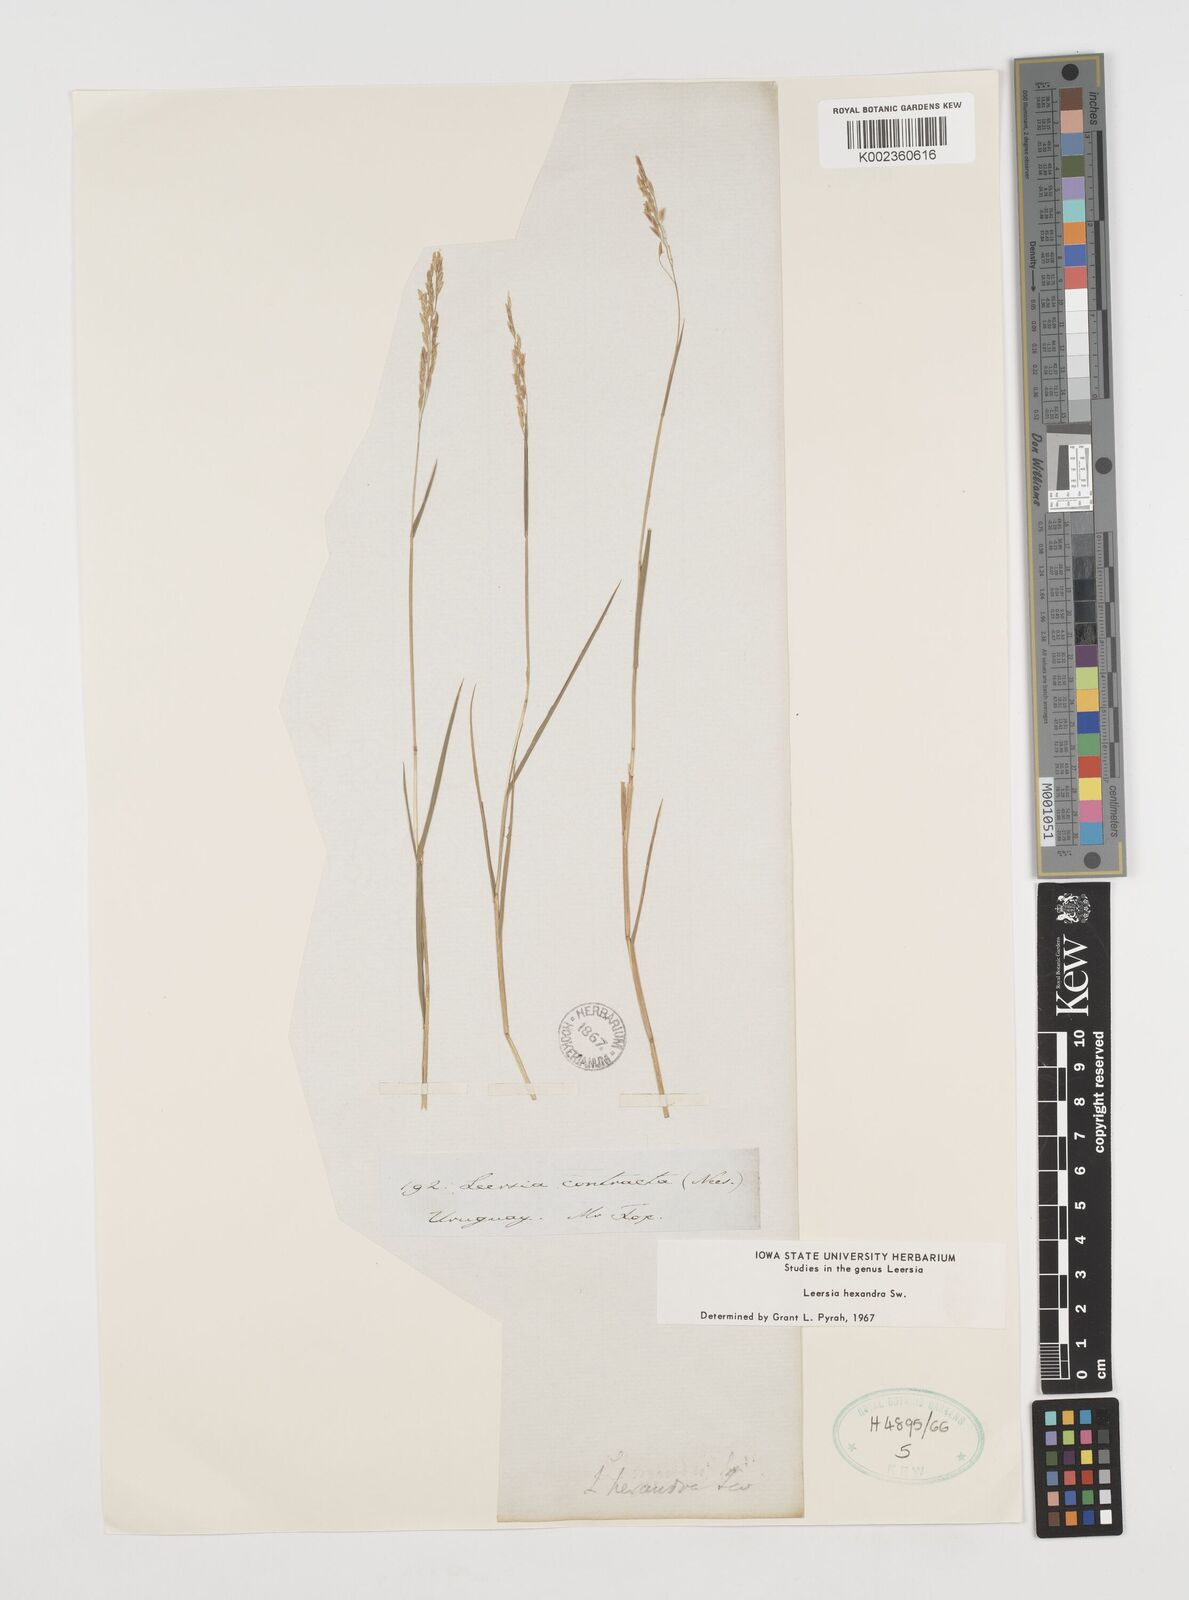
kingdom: Plantae
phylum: Tracheophyta
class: Liliopsida
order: Poales
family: Poaceae
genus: Leersia
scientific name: Leersia hexandra
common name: Southern cut grass
